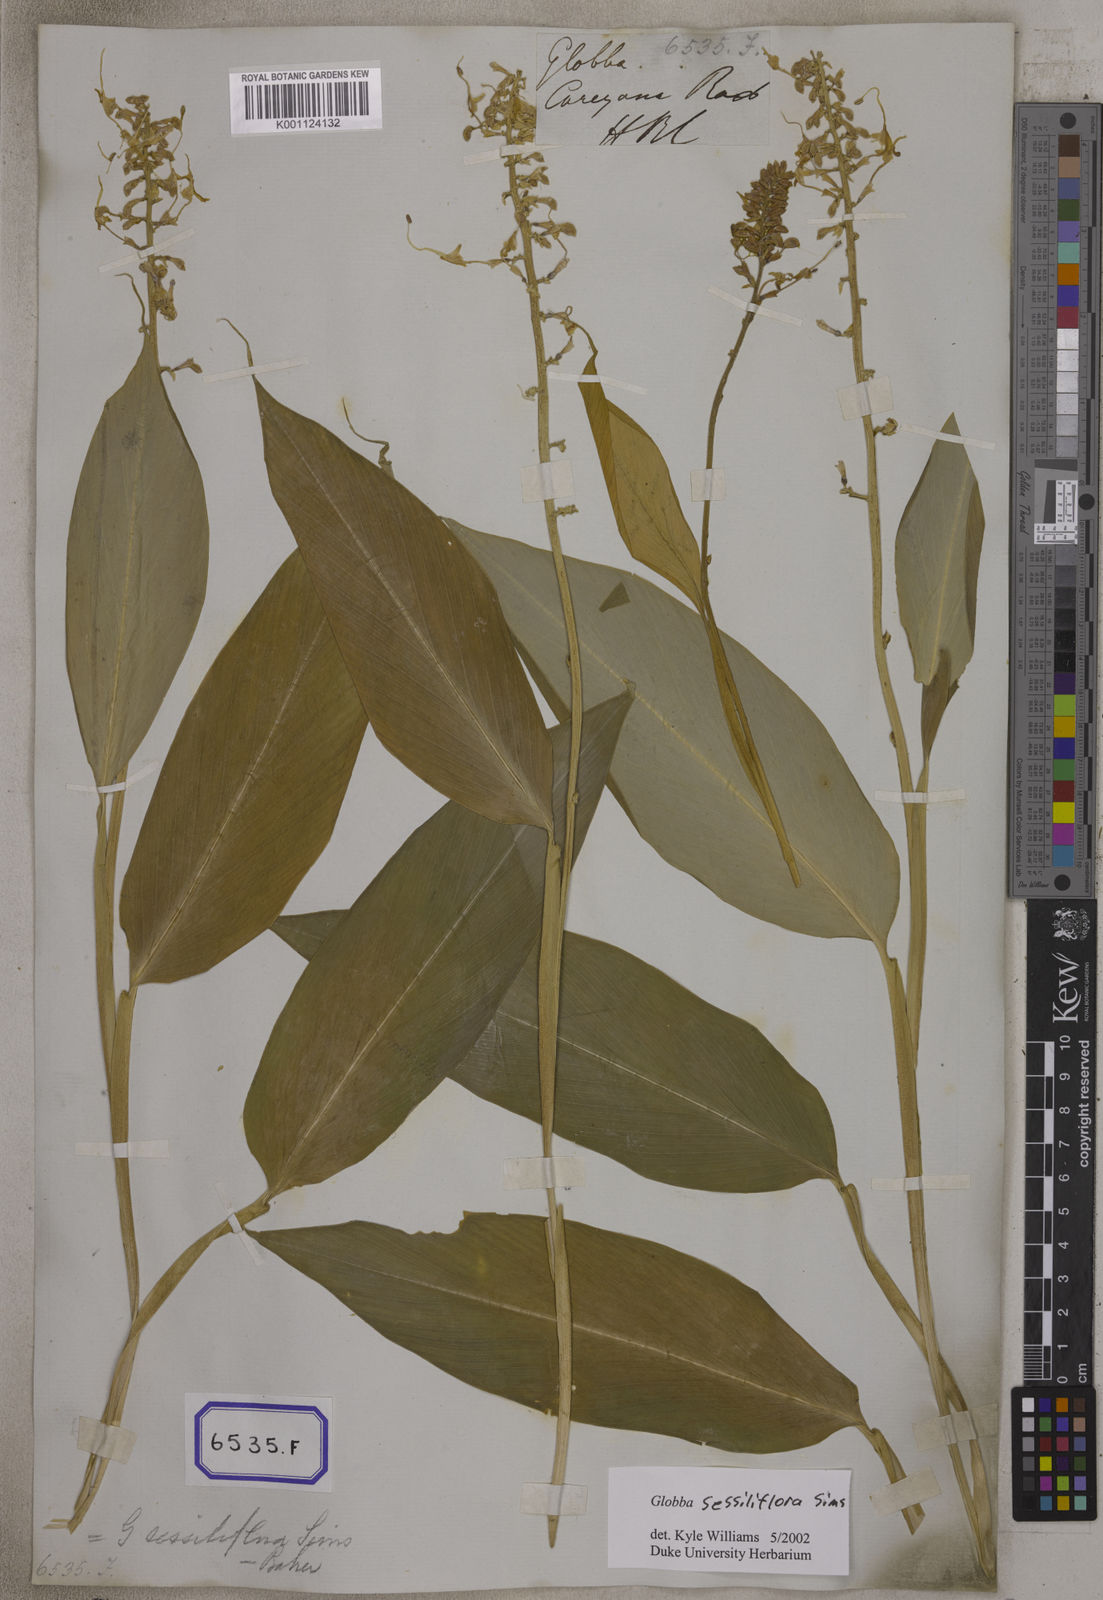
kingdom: Plantae
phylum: Tracheophyta
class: Liliopsida
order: Zingiberales
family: Zingiberaceae
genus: Globba
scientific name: Globba
